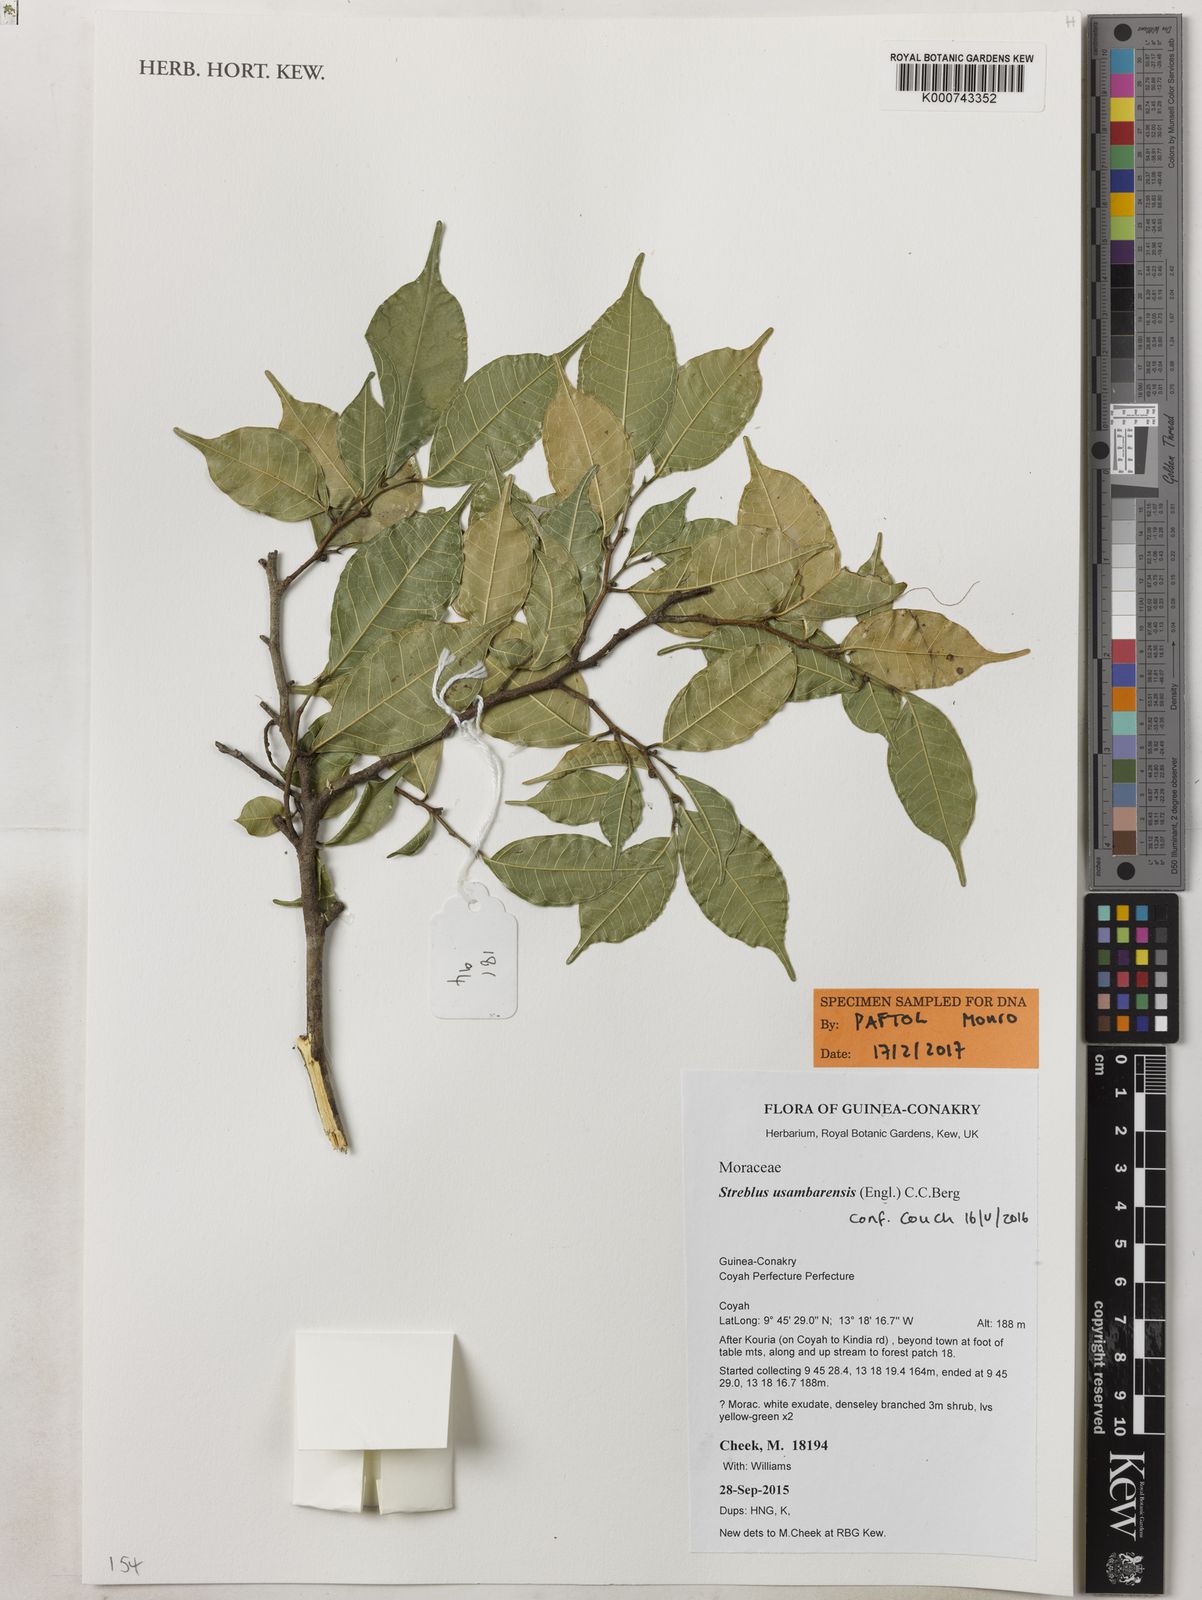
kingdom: Plantae
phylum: Tracheophyta
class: Magnoliopsida
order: Rosales
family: Moraceae
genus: Sloetiopsis
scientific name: Sloetiopsis usambarensis
